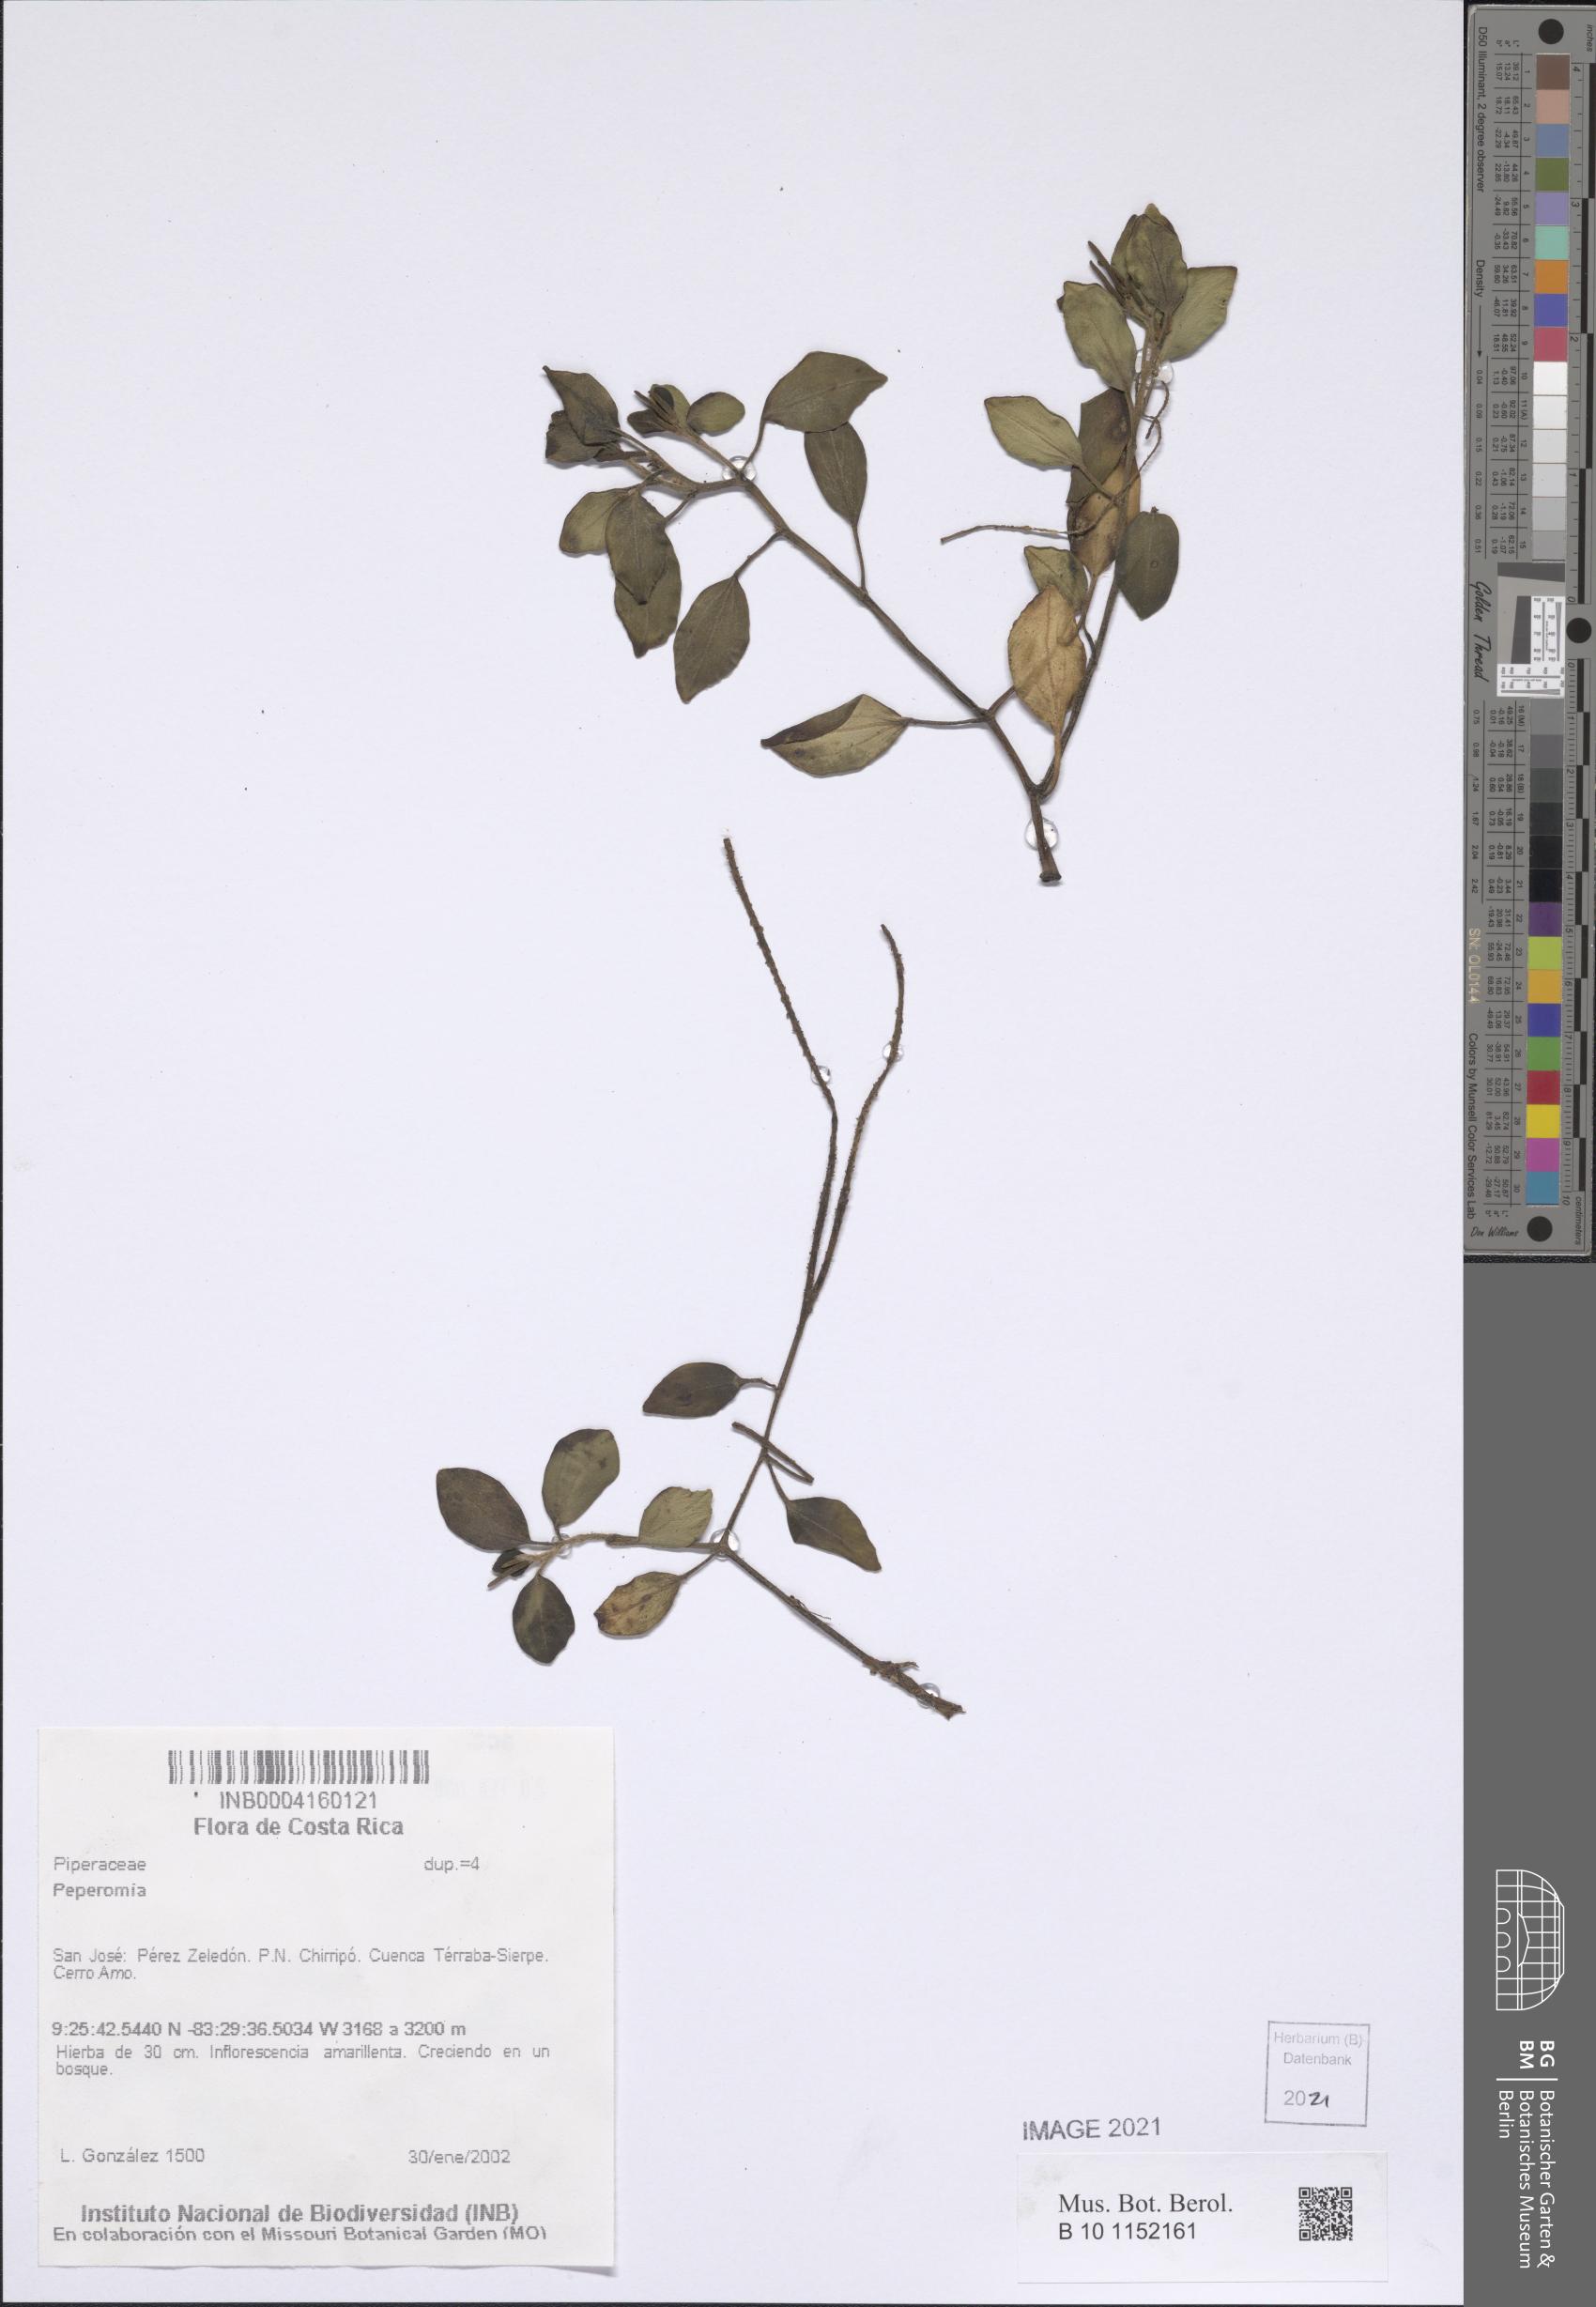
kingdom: Plantae
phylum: Tracheophyta
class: Magnoliopsida
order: Piperales
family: Piperaceae
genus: Peperomia
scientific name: Peperomia
